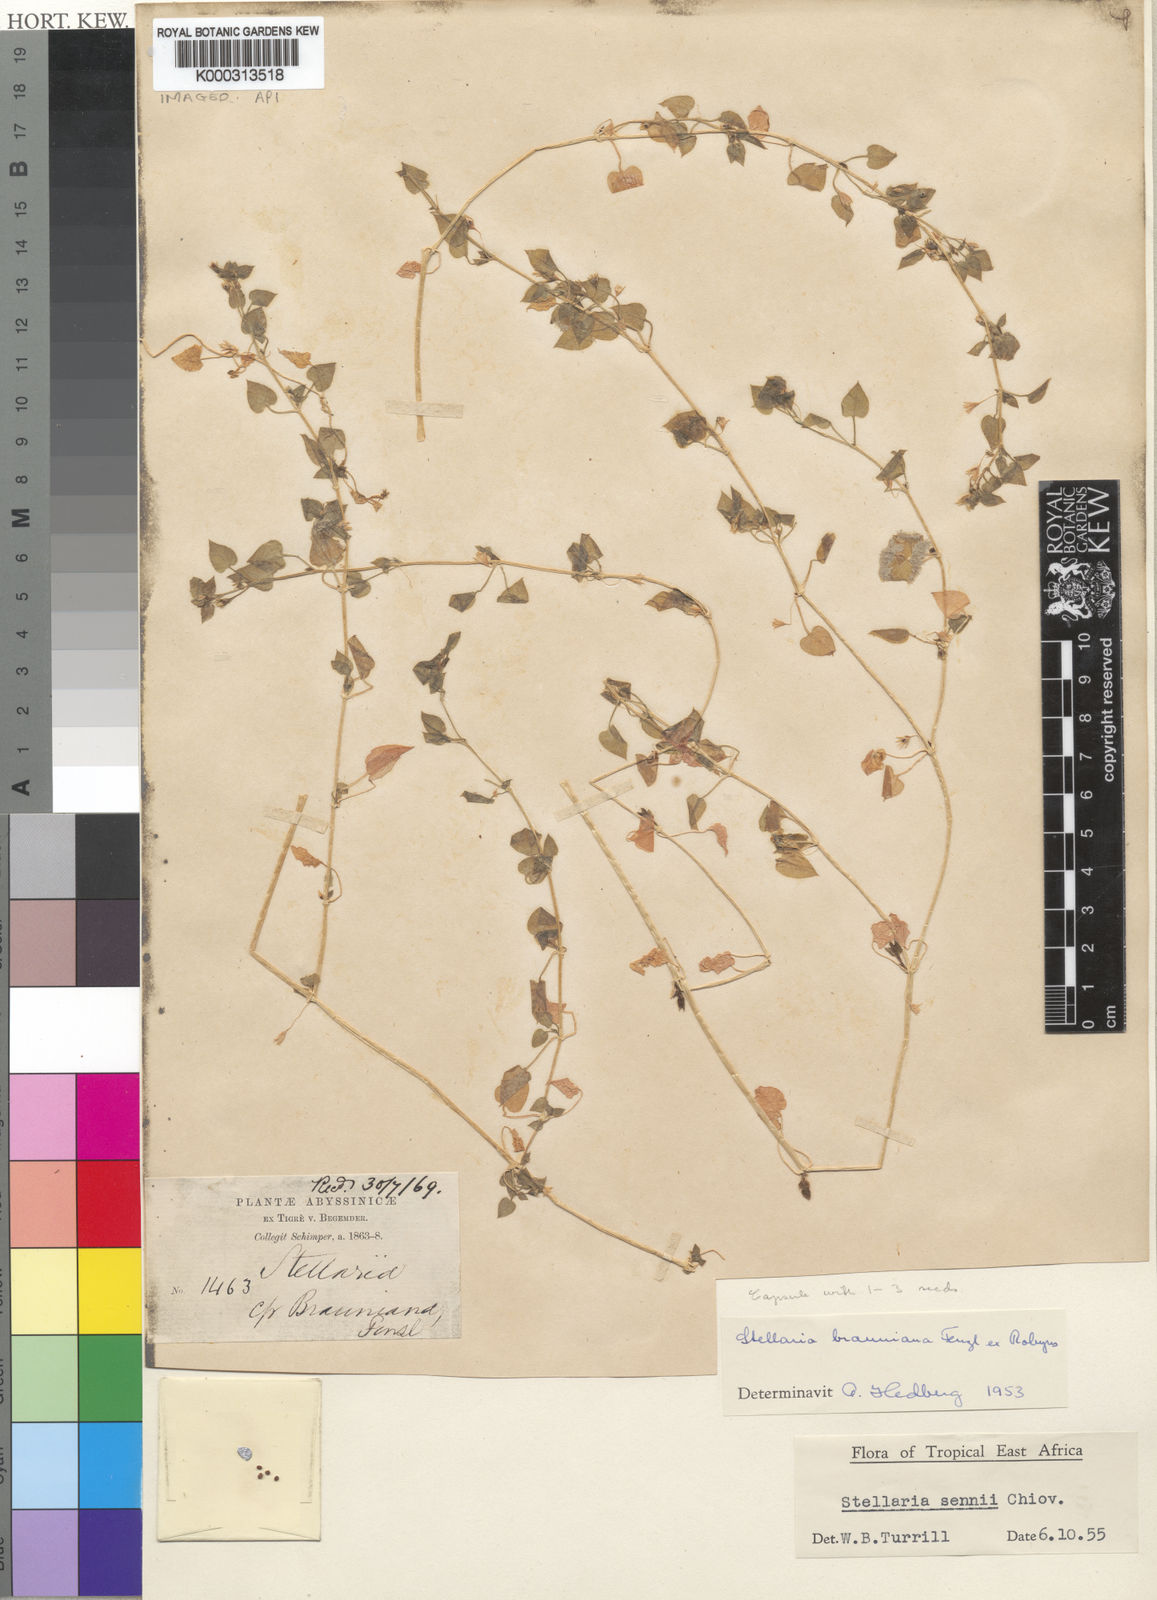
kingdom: Plantae
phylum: Tracheophyta
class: Magnoliopsida
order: Caryophyllales
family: Caryophyllaceae
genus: Stellaria
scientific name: Stellaria sennii
